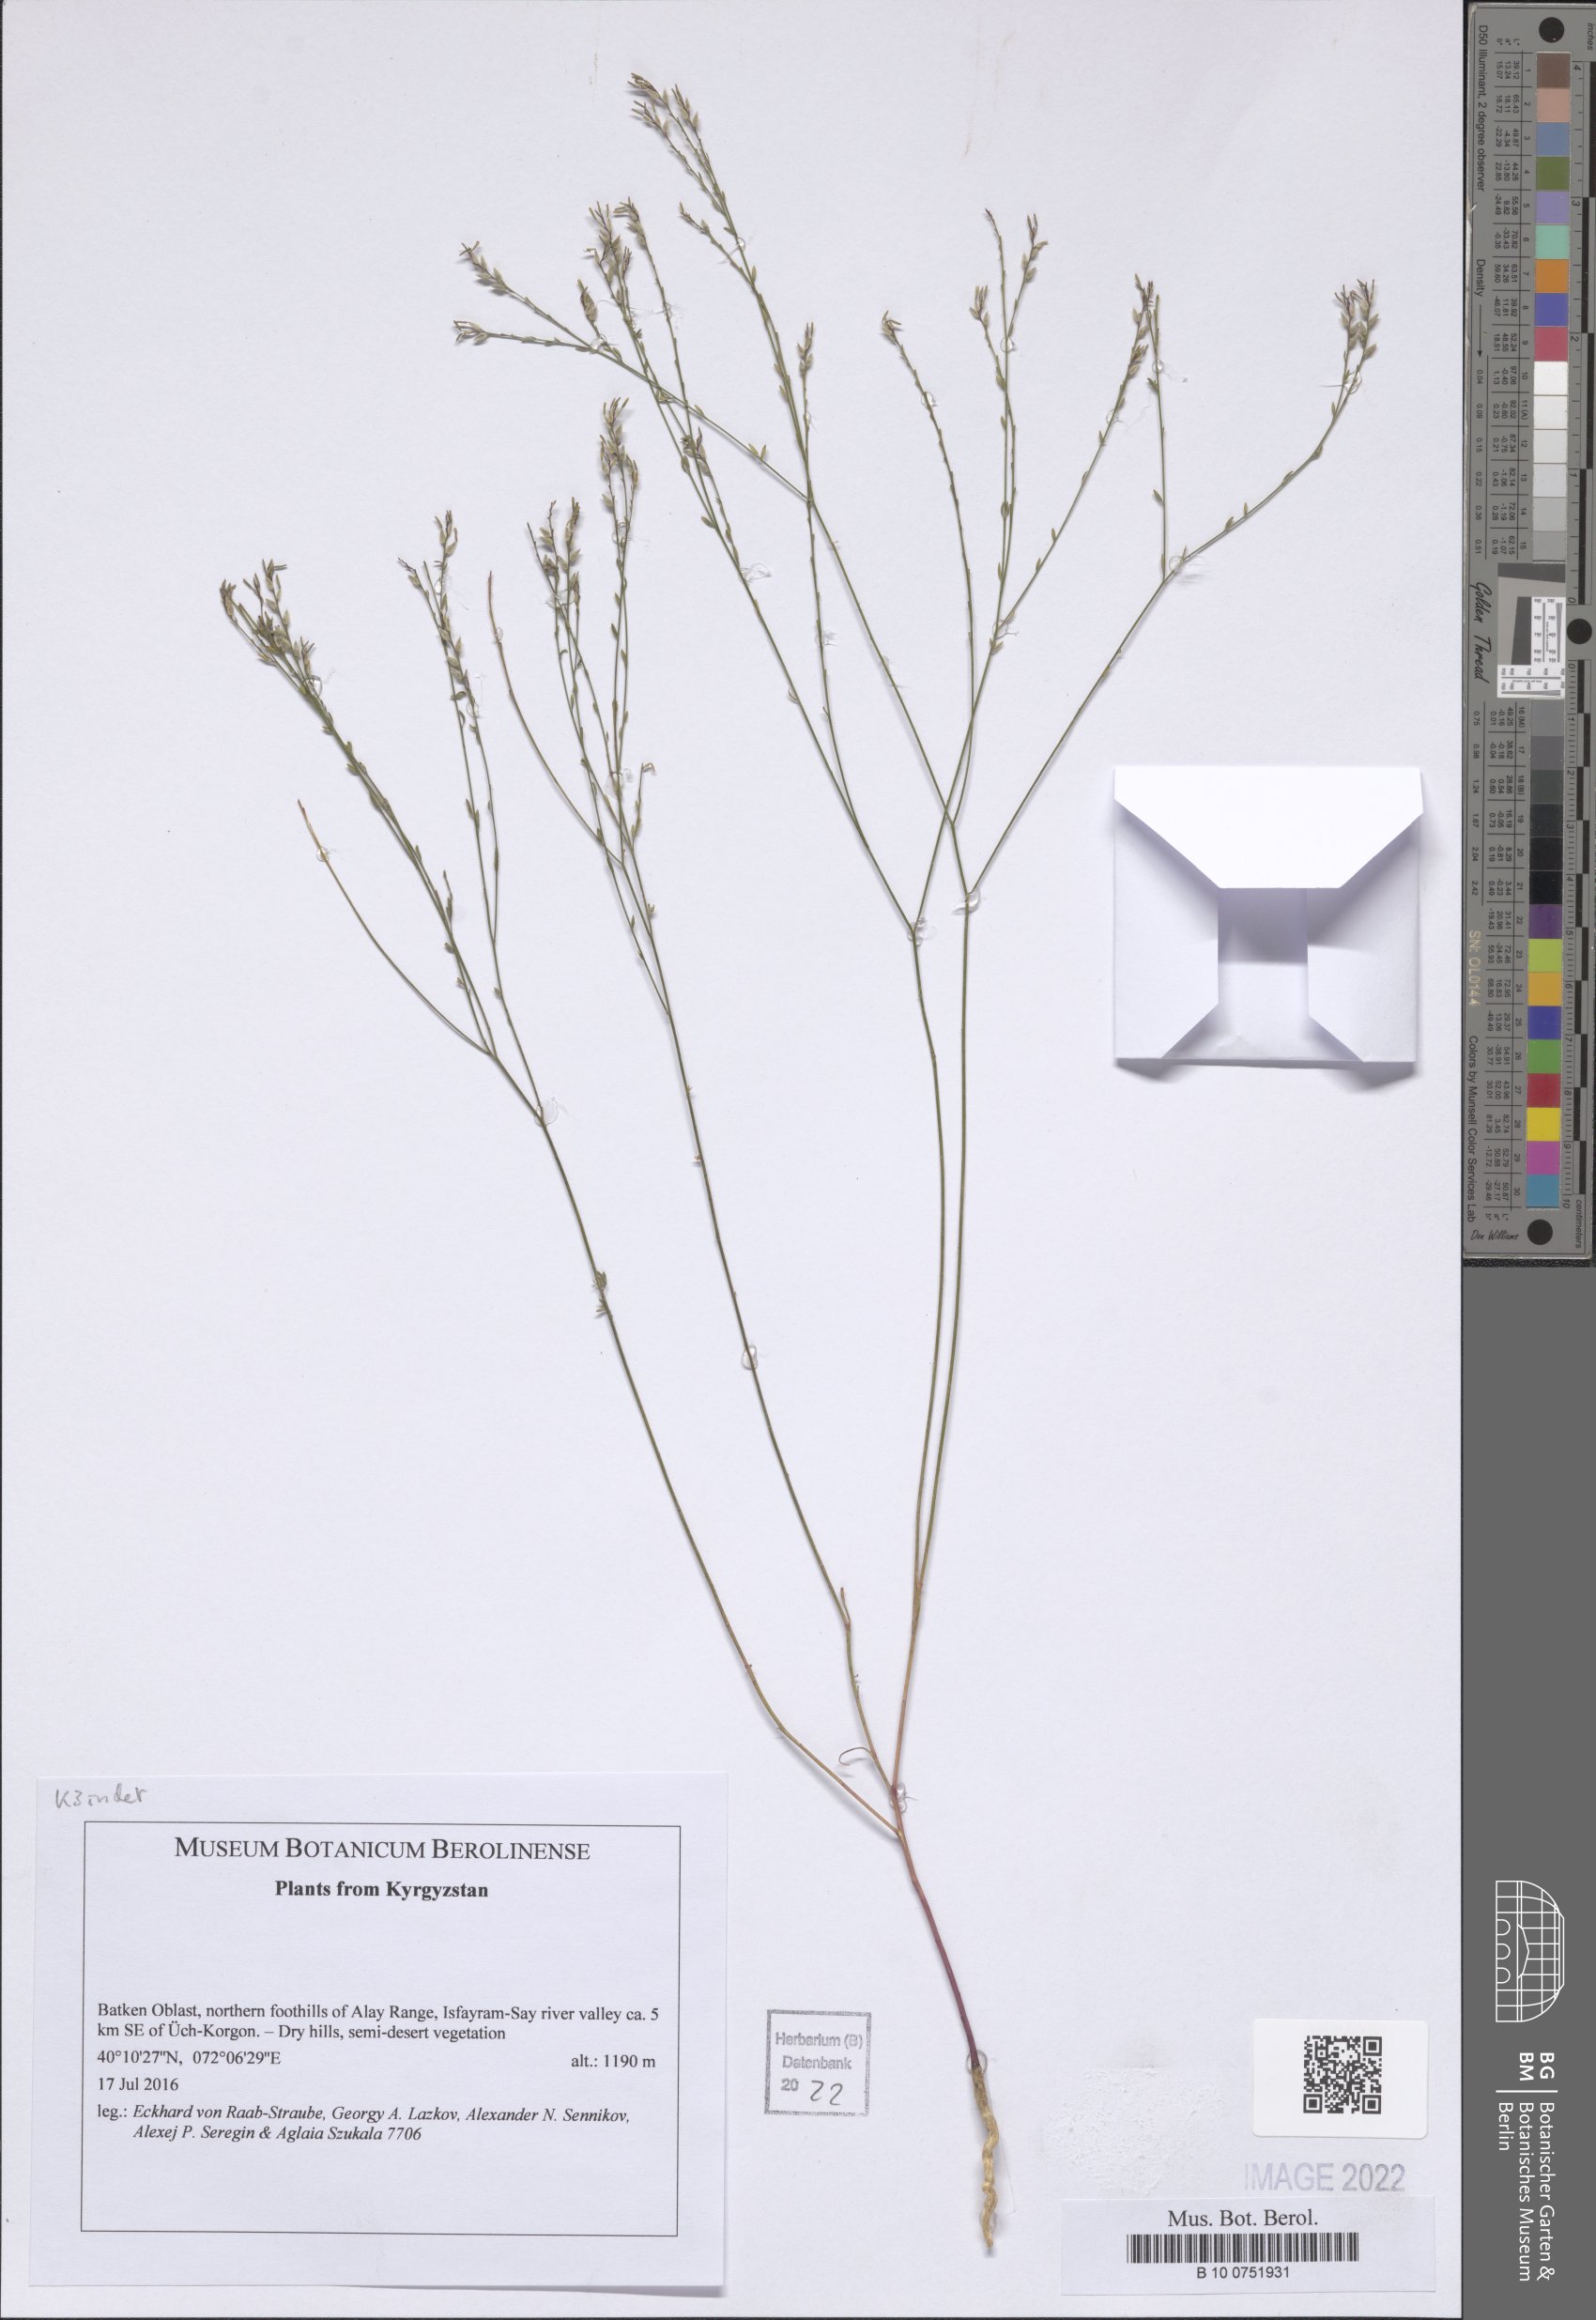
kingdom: Plantae
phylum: Tracheophyta
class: Magnoliopsida
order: Brassicales
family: Brassicaceae
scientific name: Brassicaceae
